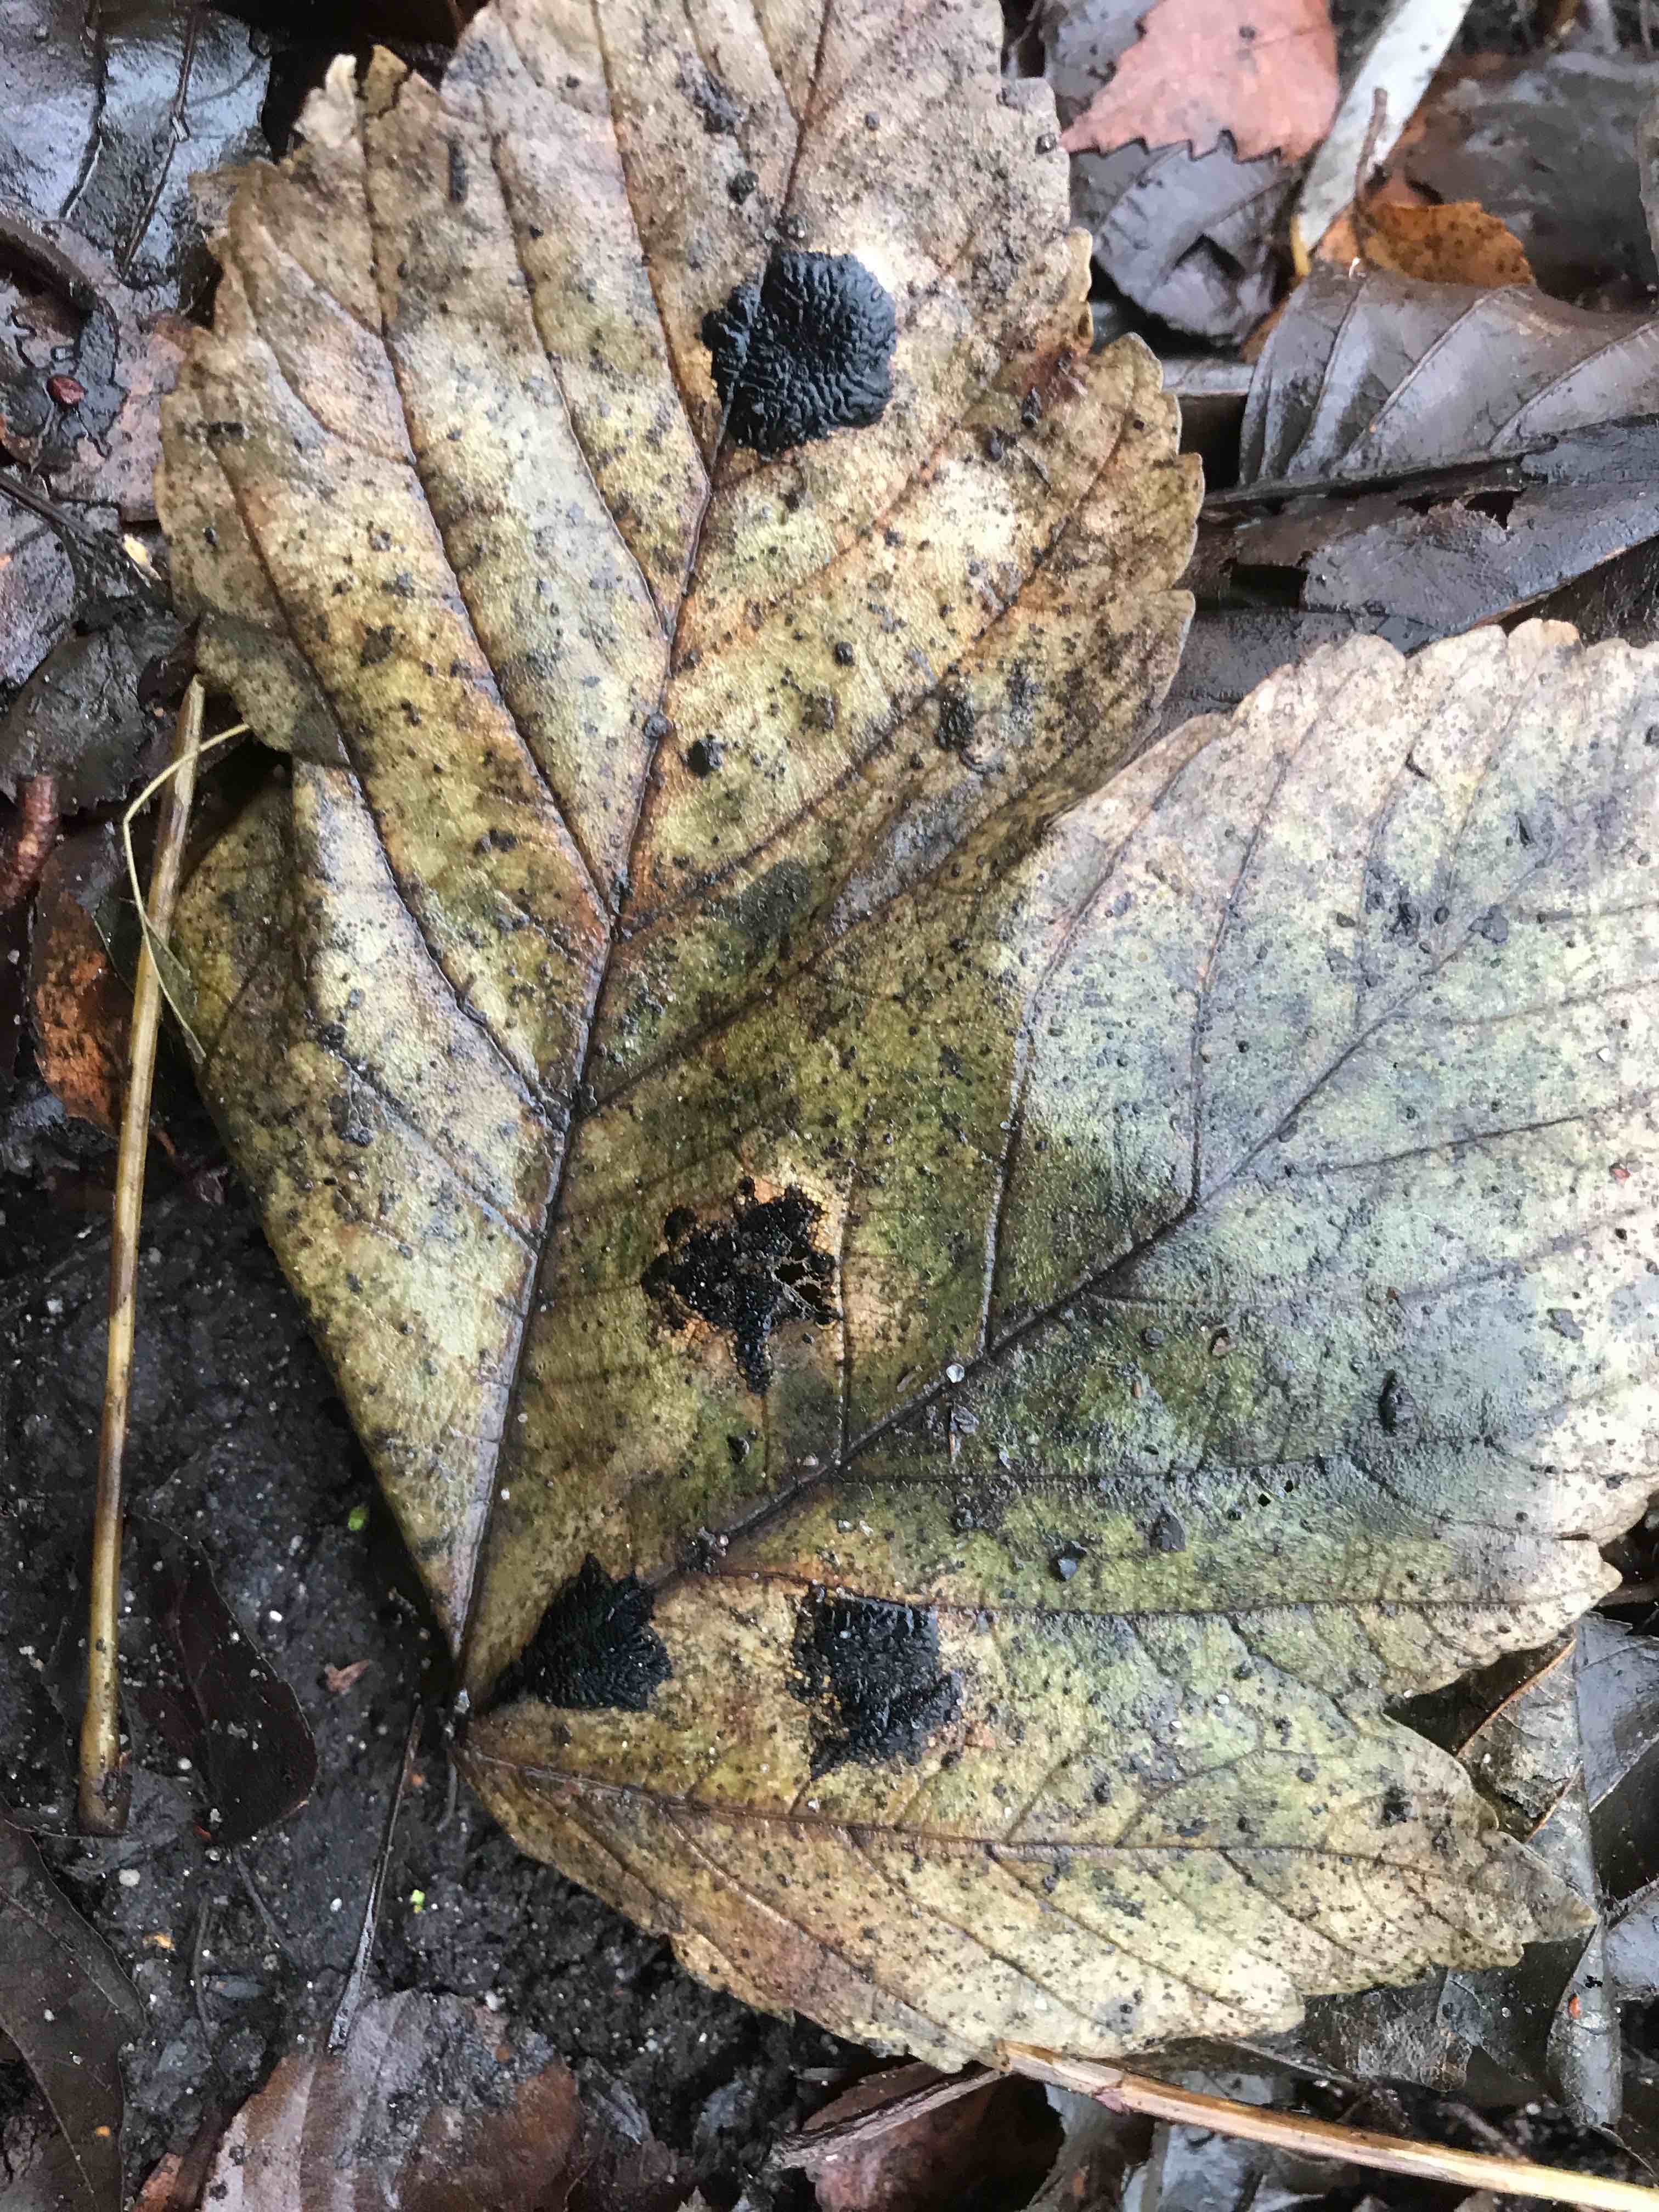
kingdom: Fungi
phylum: Ascomycota
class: Leotiomycetes
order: Rhytismatales
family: Rhytismataceae
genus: Rhytisma
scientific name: Rhytisma acerinum
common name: ahorn-rynkeplet
